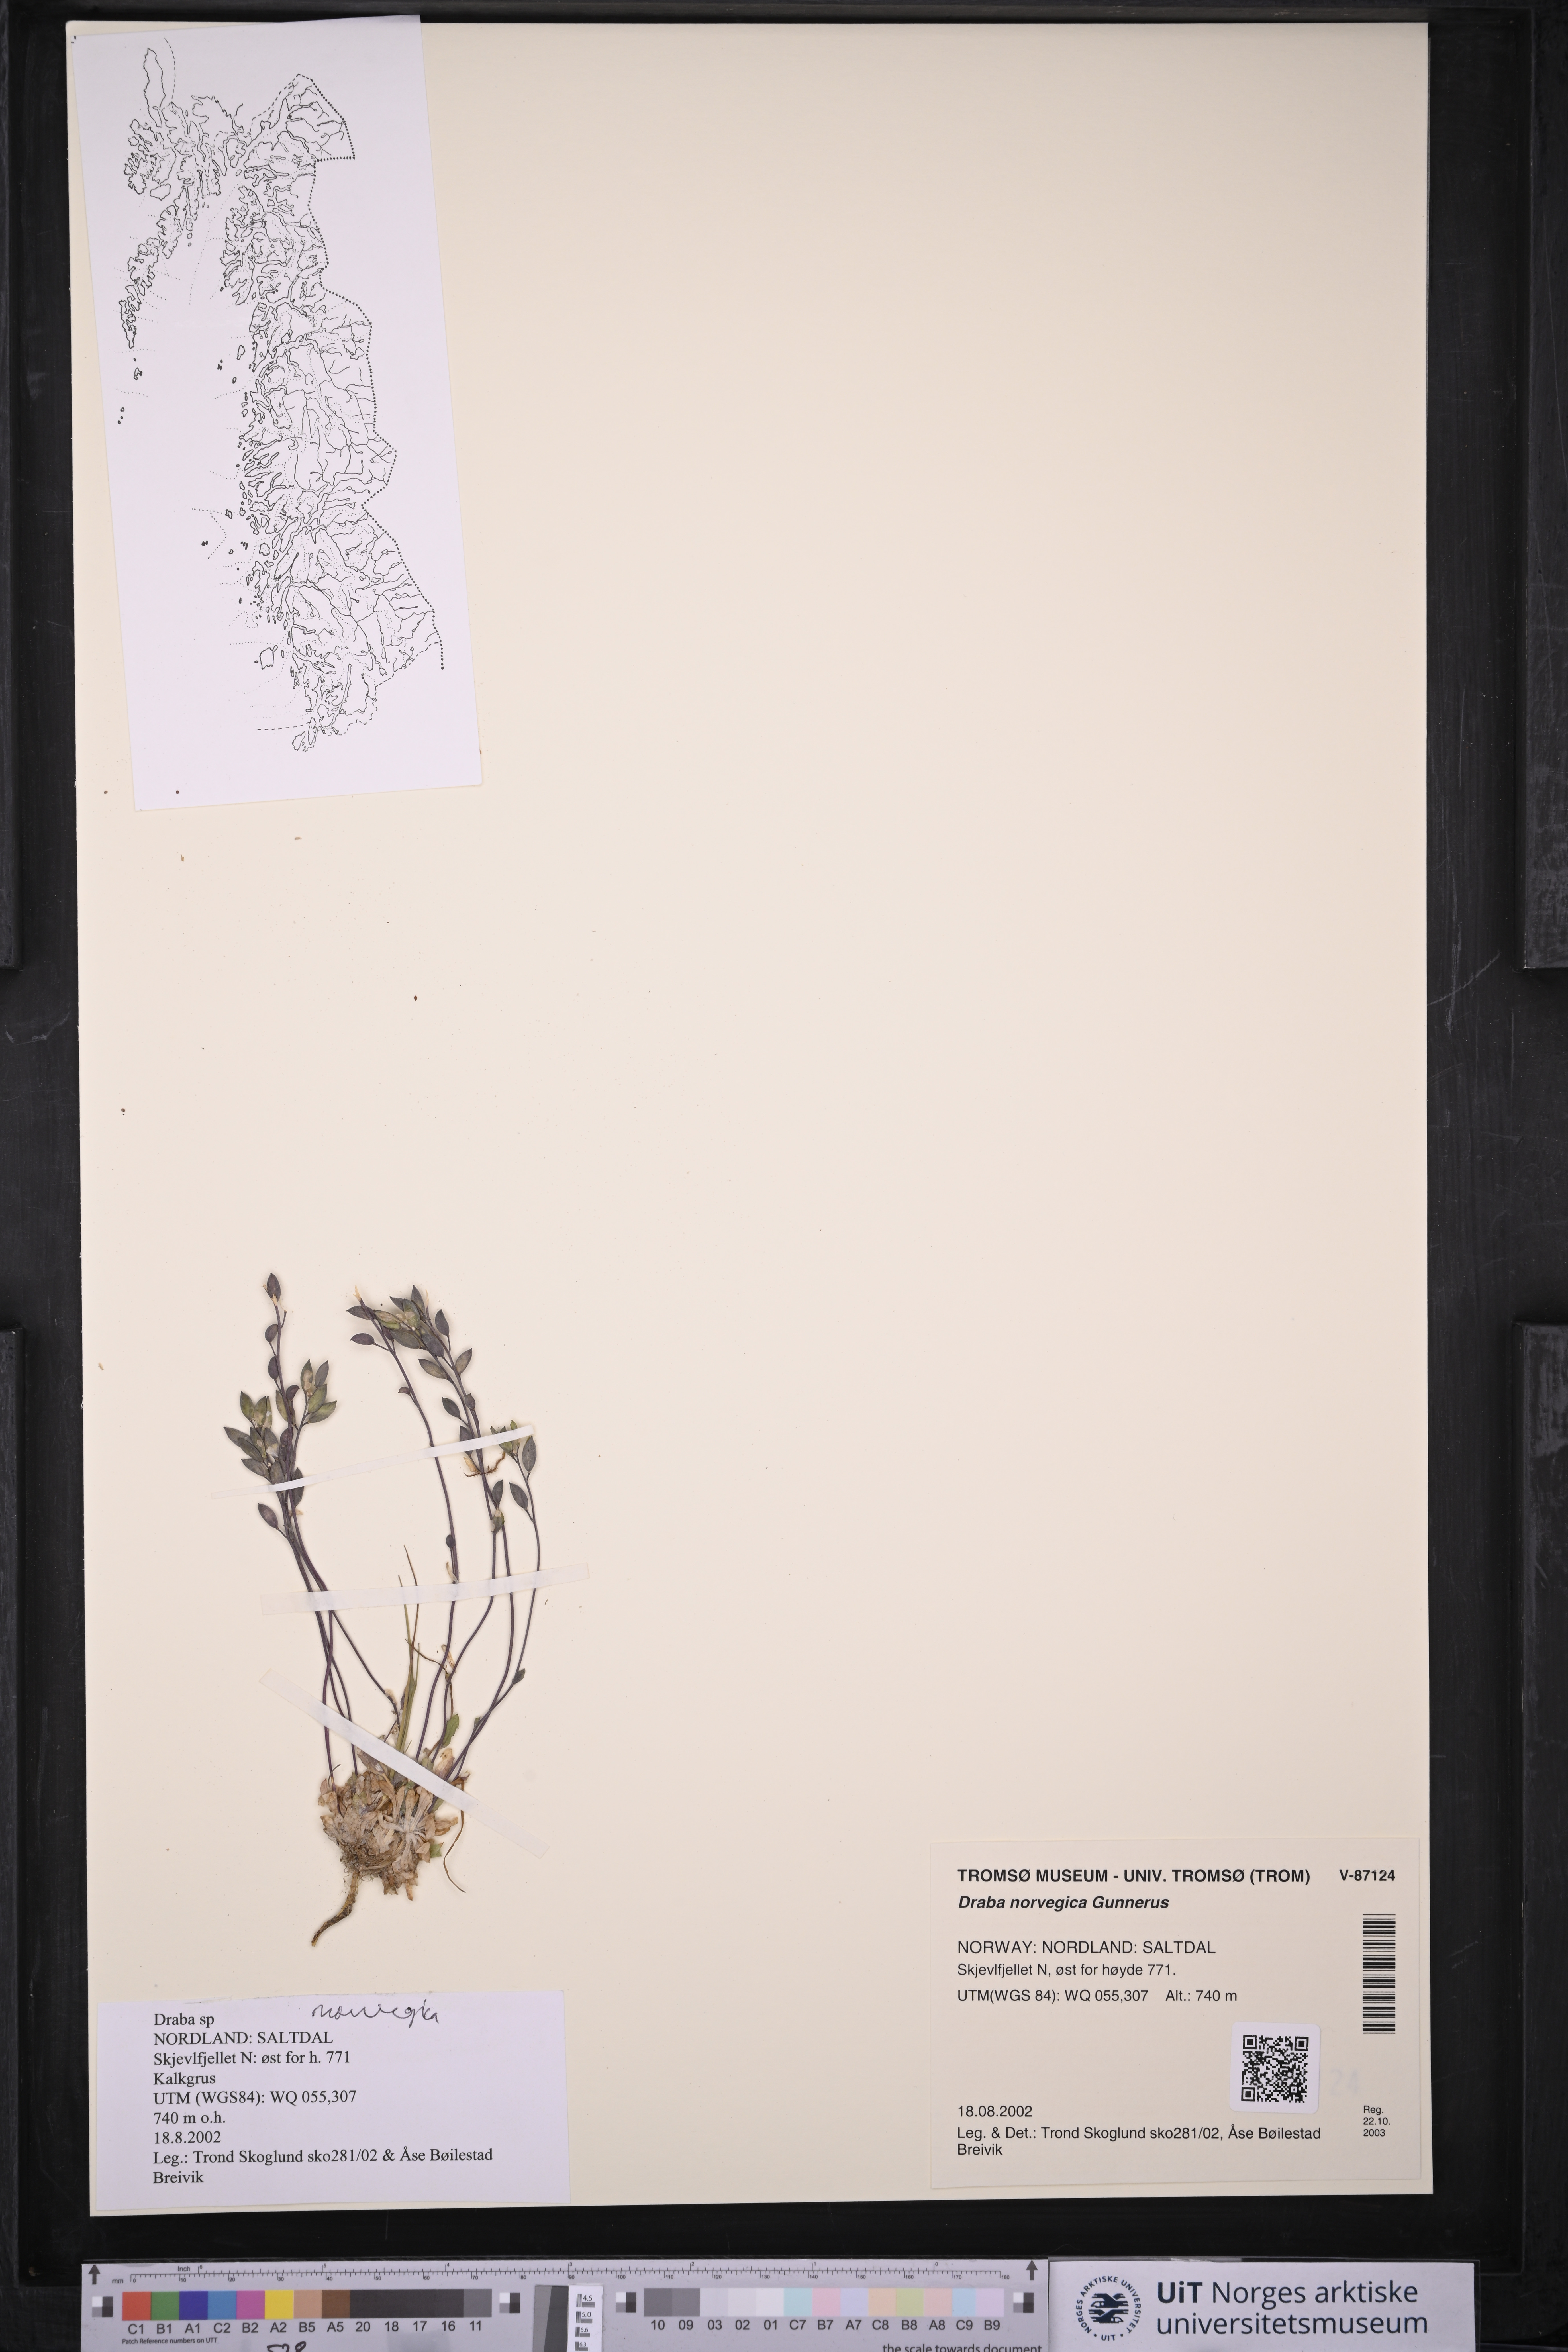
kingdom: Plantae
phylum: Tracheophyta
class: Magnoliopsida
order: Brassicales
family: Brassicaceae
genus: Draba
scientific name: Draba norvegica
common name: Rock whitlowgrass
